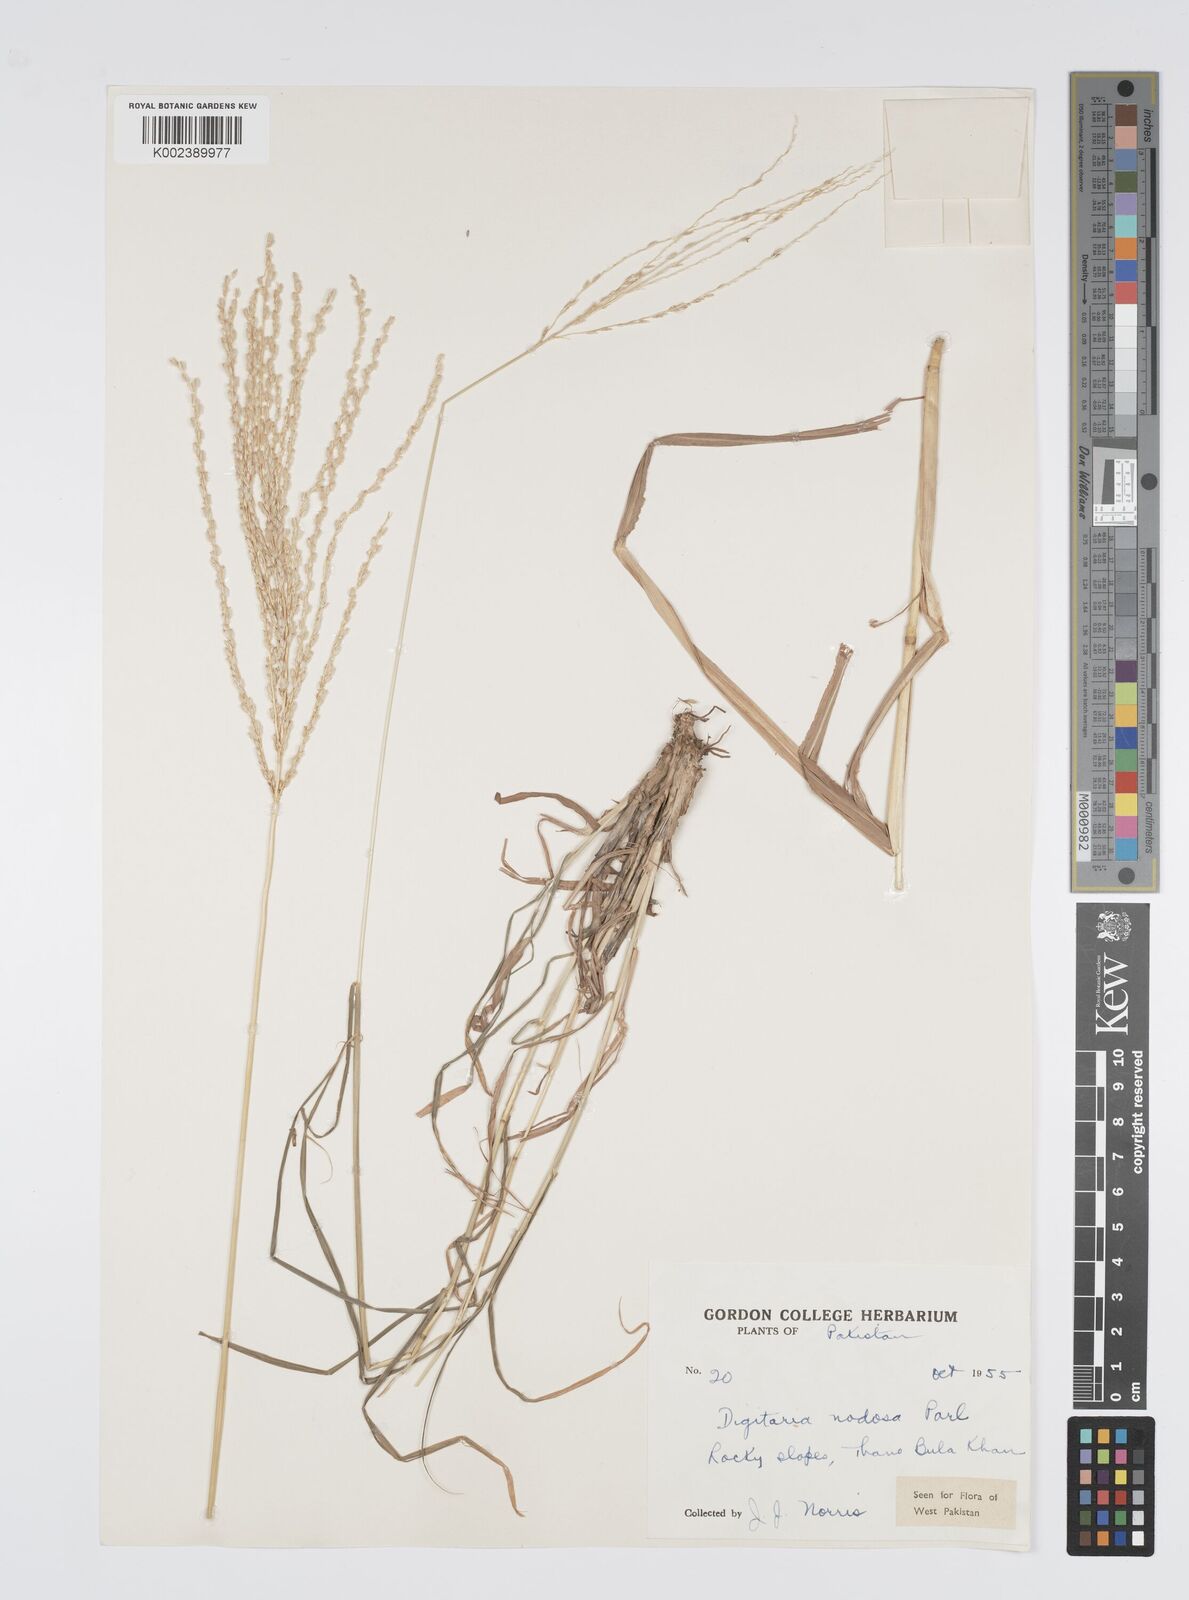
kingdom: Plantae
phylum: Tracheophyta
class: Liliopsida
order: Poales
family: Poaceae
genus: Digitaria
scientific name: Digitaria nodosa
